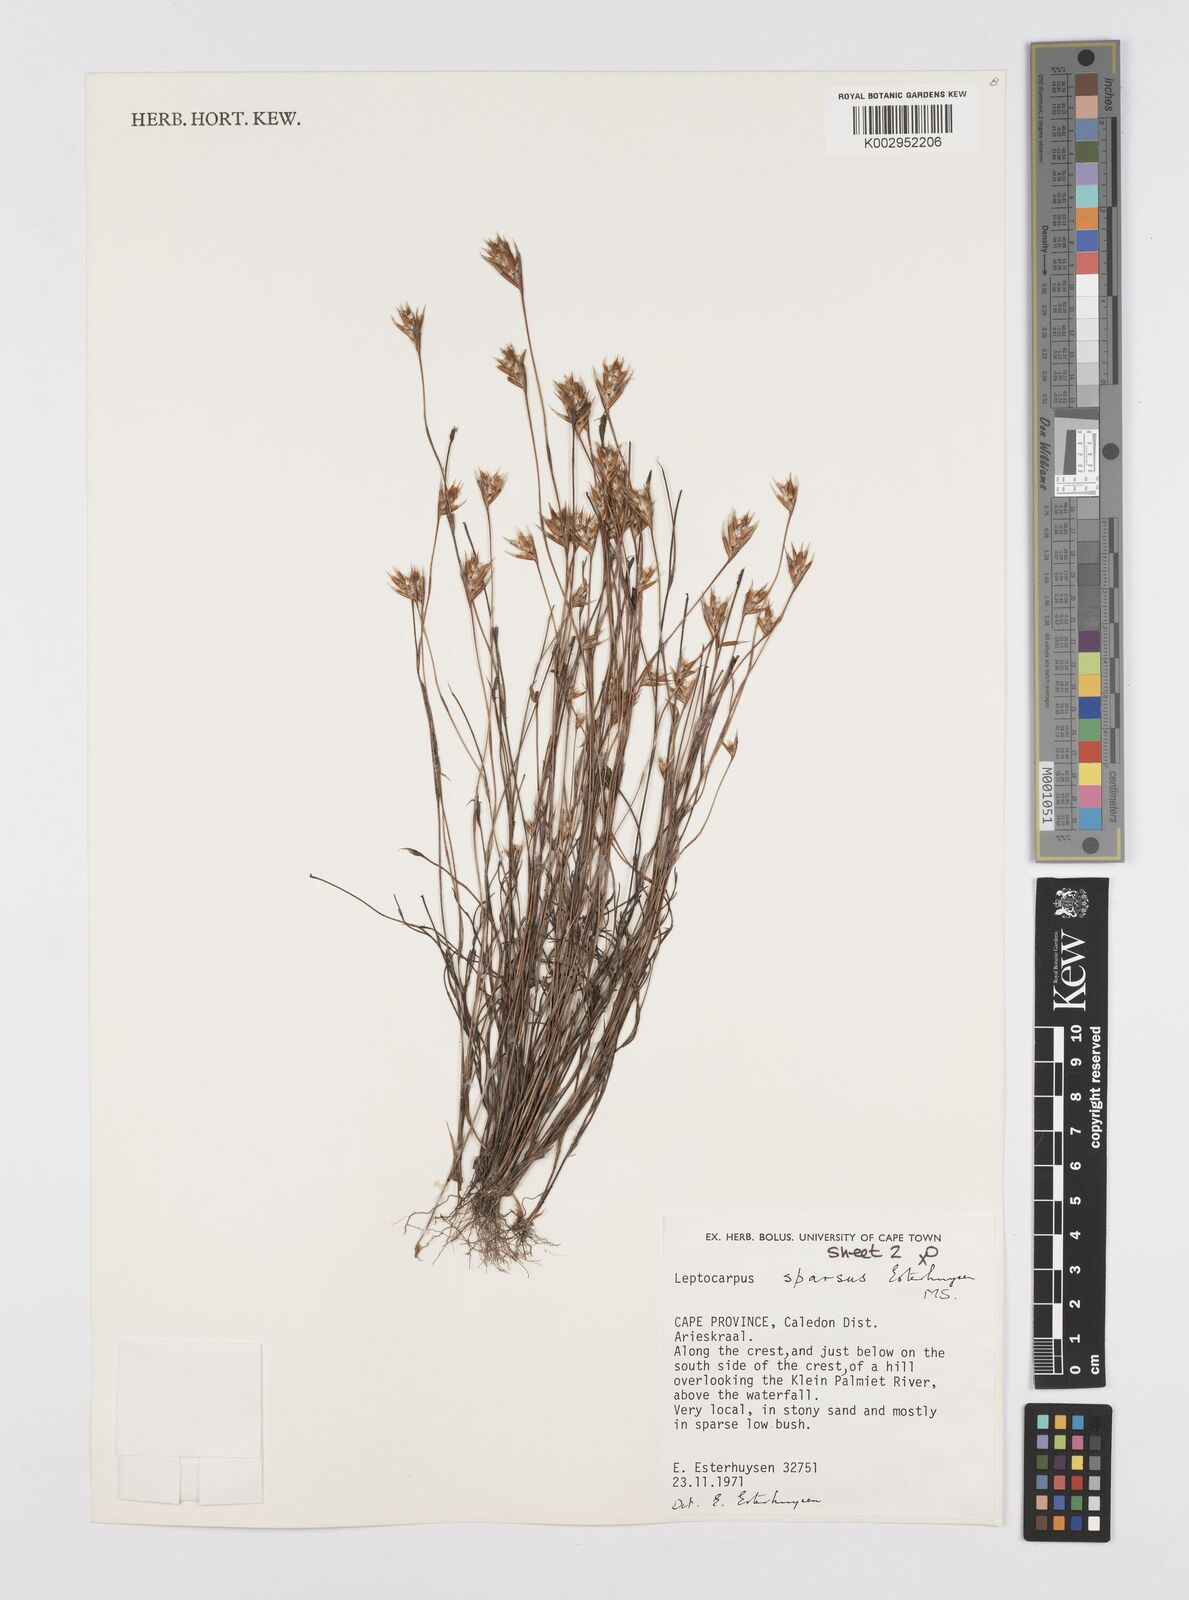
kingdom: Plantae
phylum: Tracheophyta
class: Liliopsida
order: Poales
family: Restionaceae
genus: Restio
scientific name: Restio strobilifer
